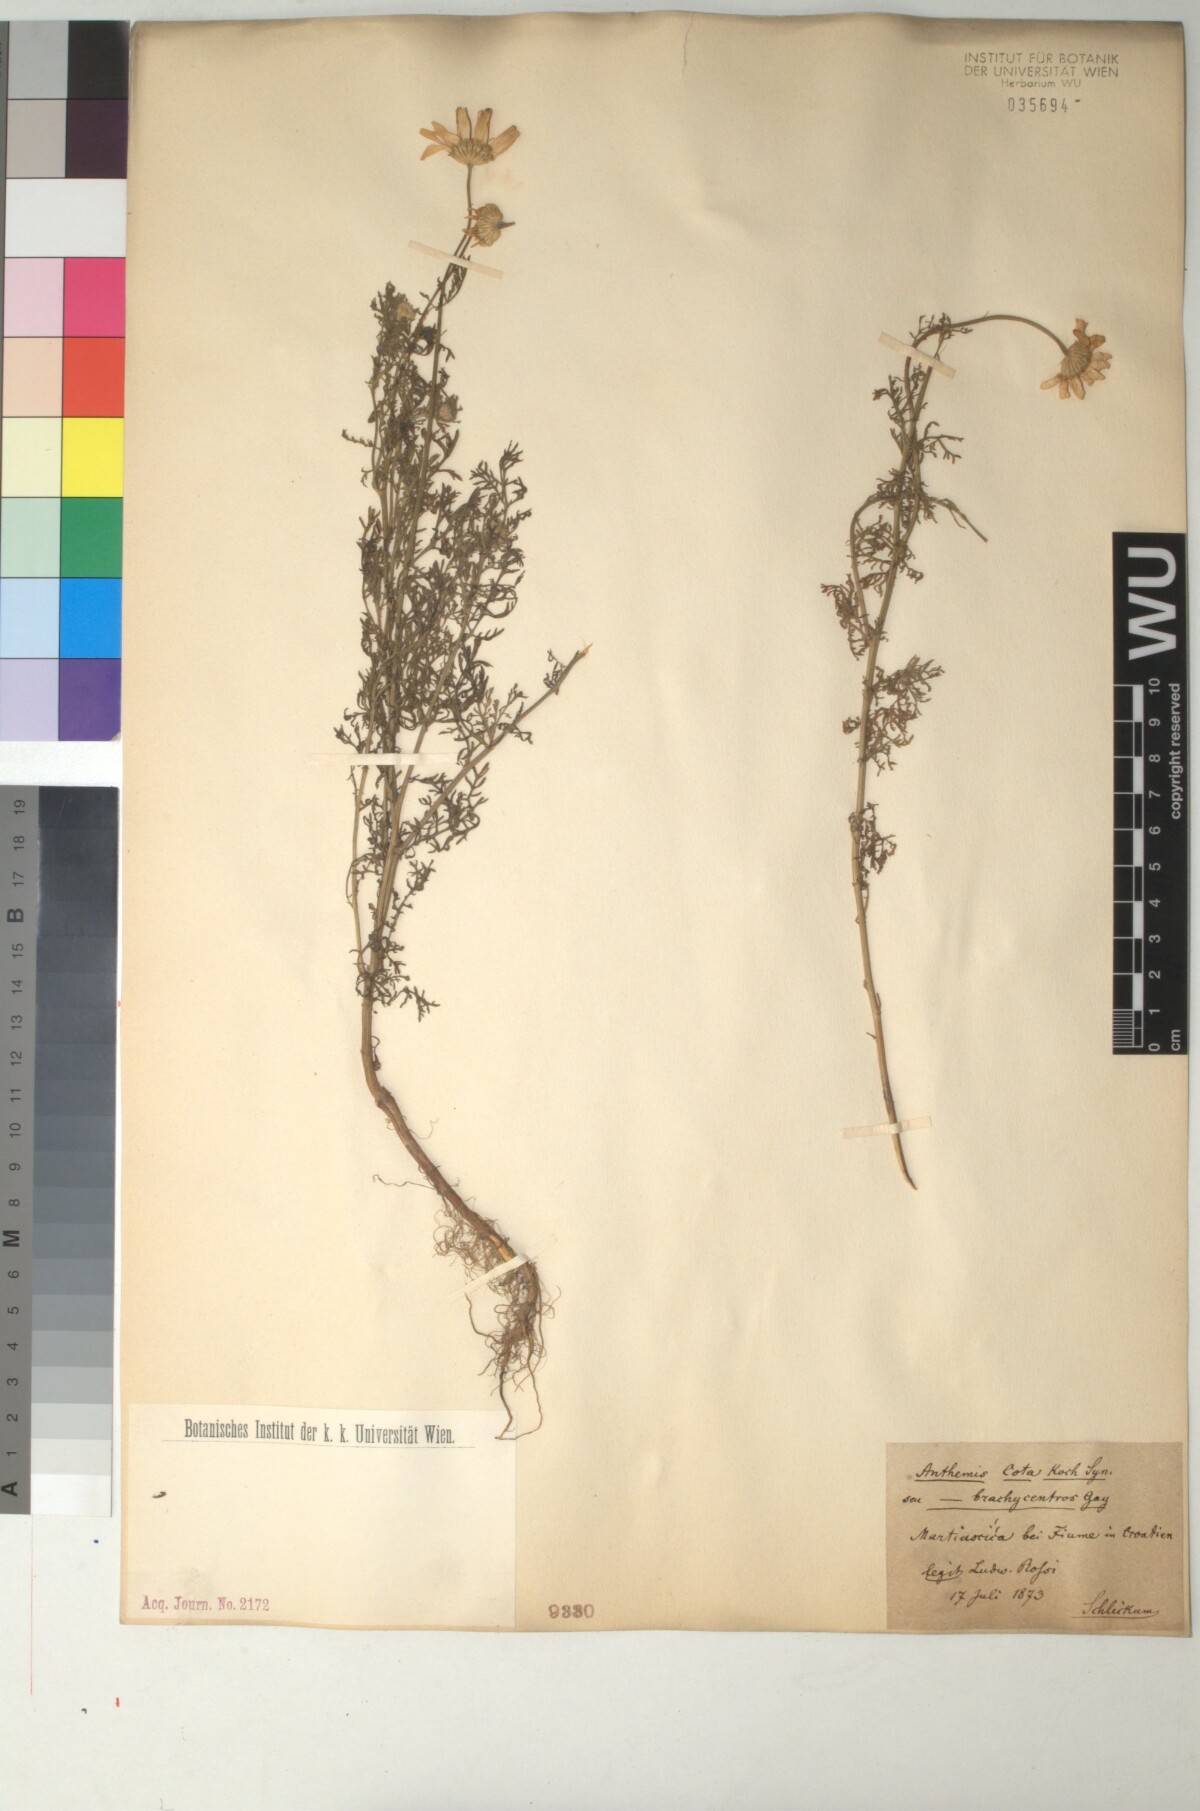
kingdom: Plantae
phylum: Tracheophyta
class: Magnoliopsida
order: Asterales
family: Asteraceae
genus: Cota
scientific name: Cota altissima
